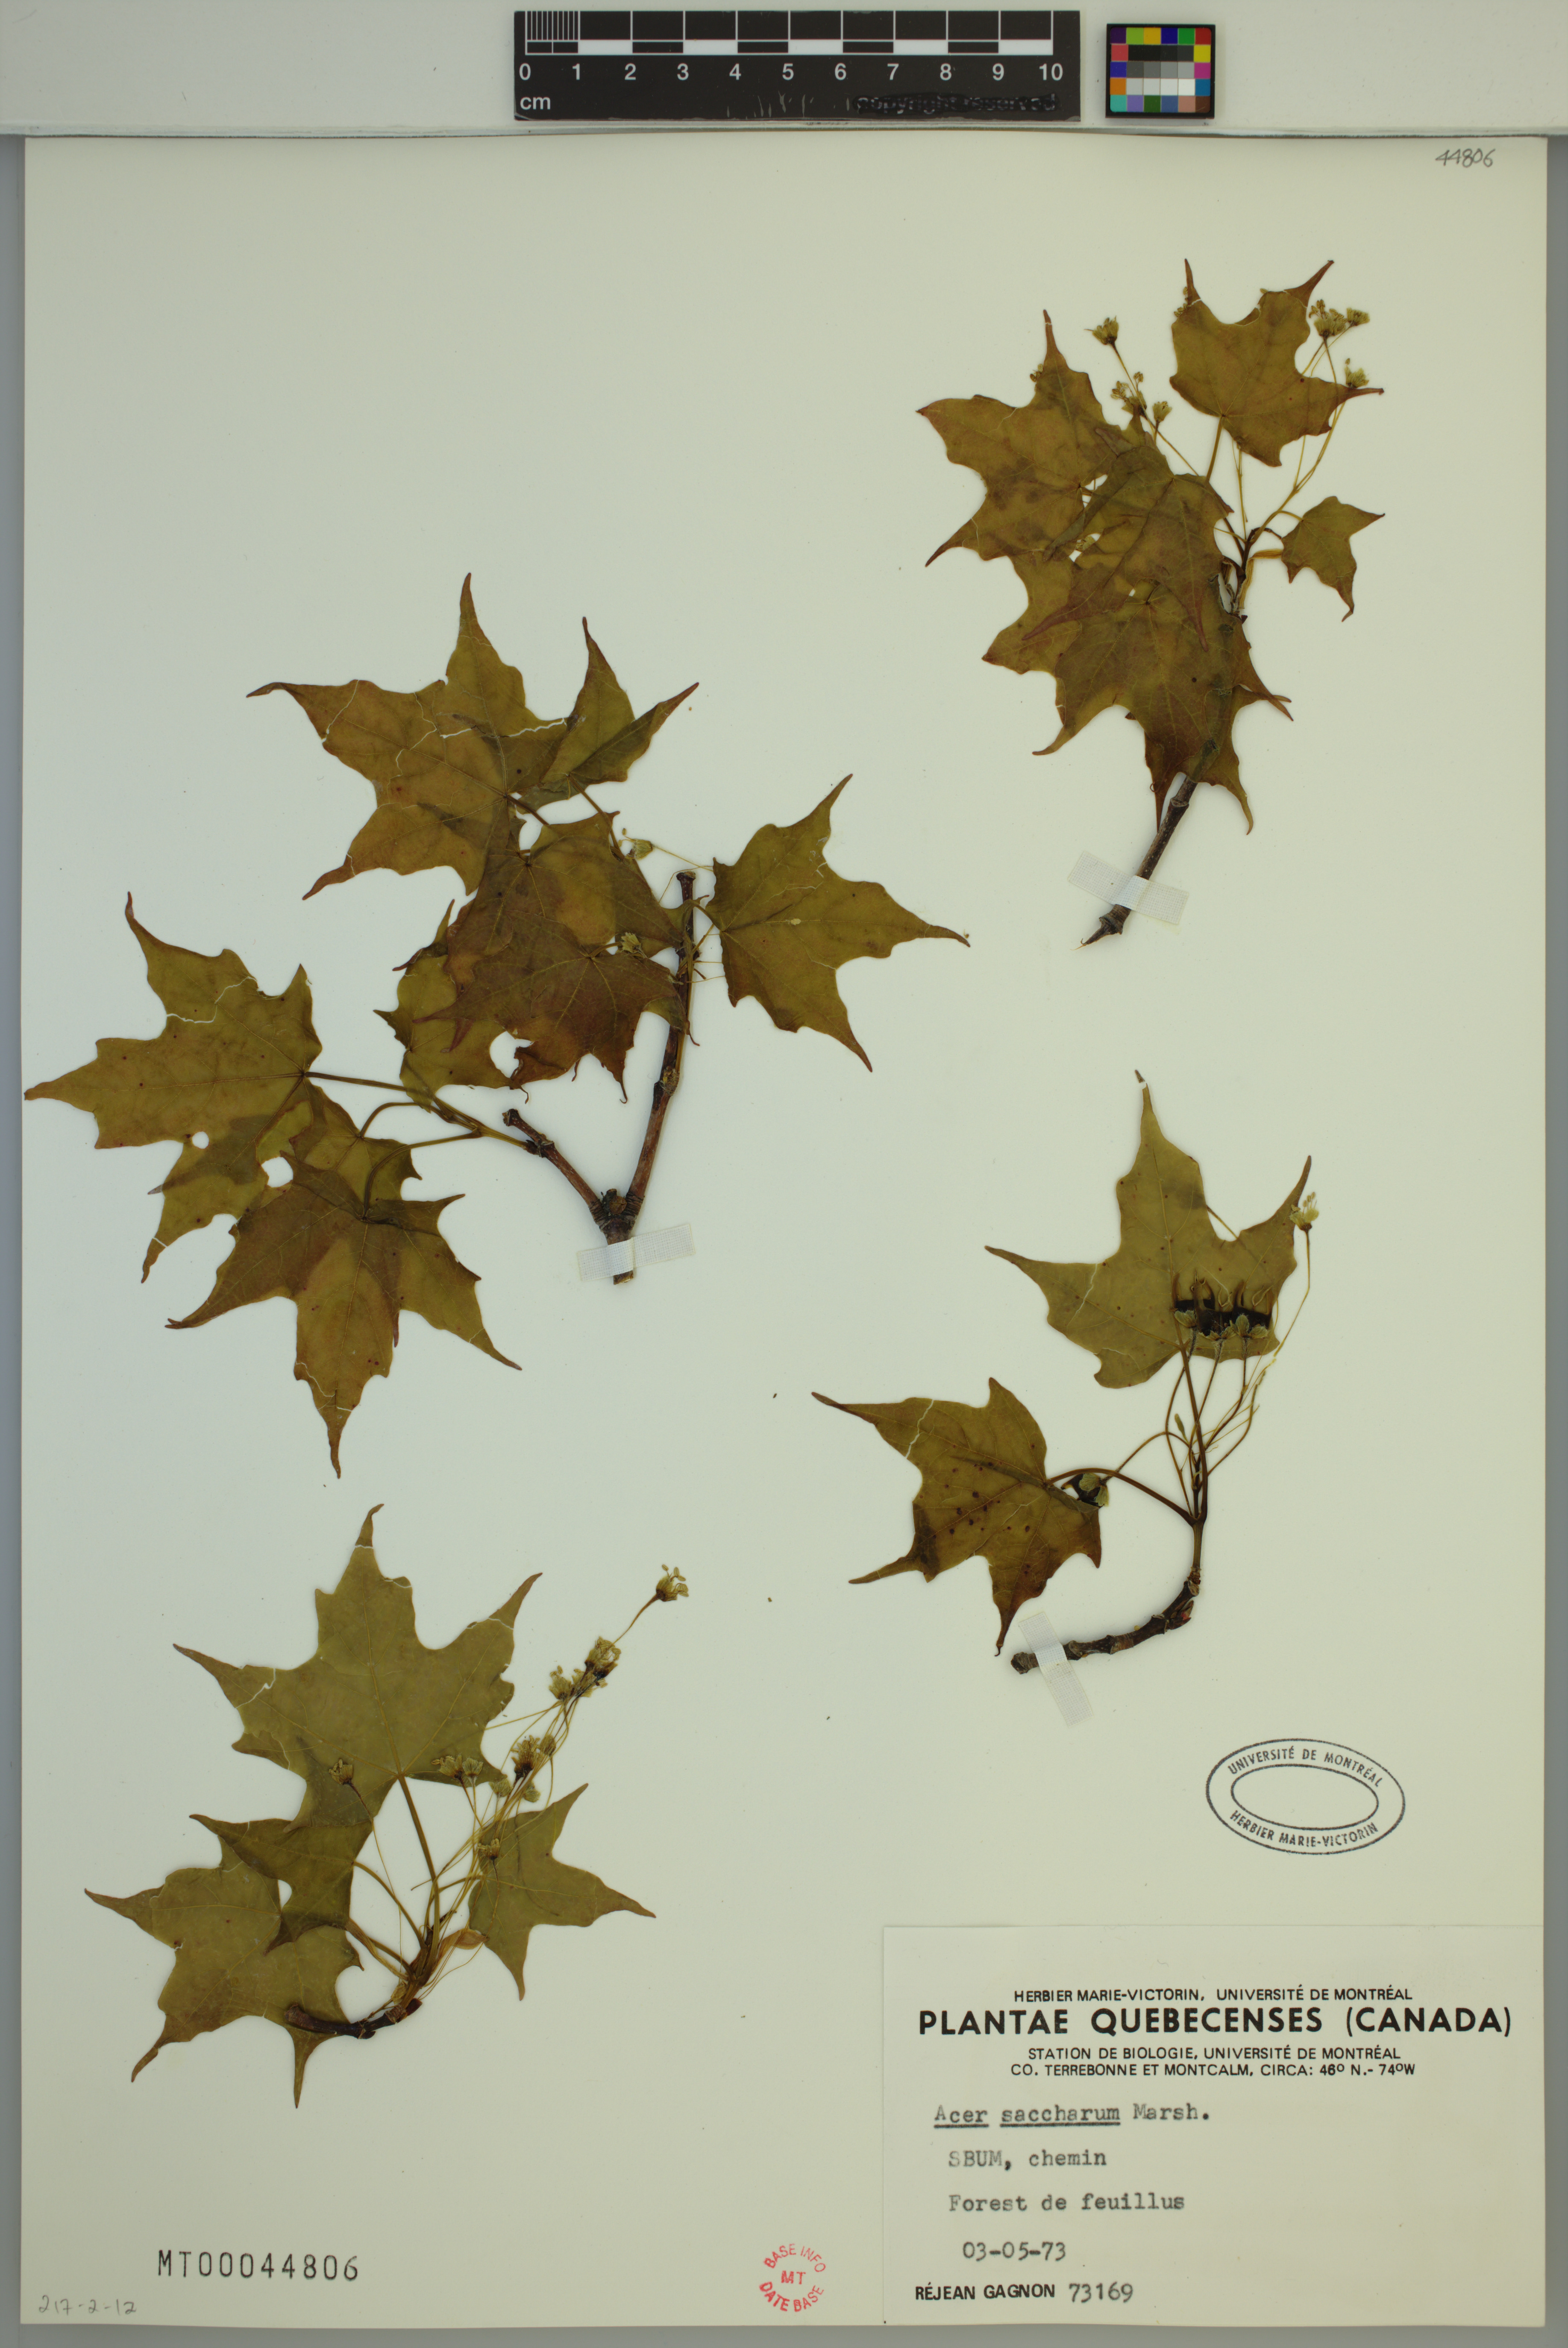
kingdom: Plantae
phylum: Tracheophyta
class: Magnoliopsida
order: Sapindales
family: Sapindaceae
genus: Acer
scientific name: Acer saccharum
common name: Sugar maple
